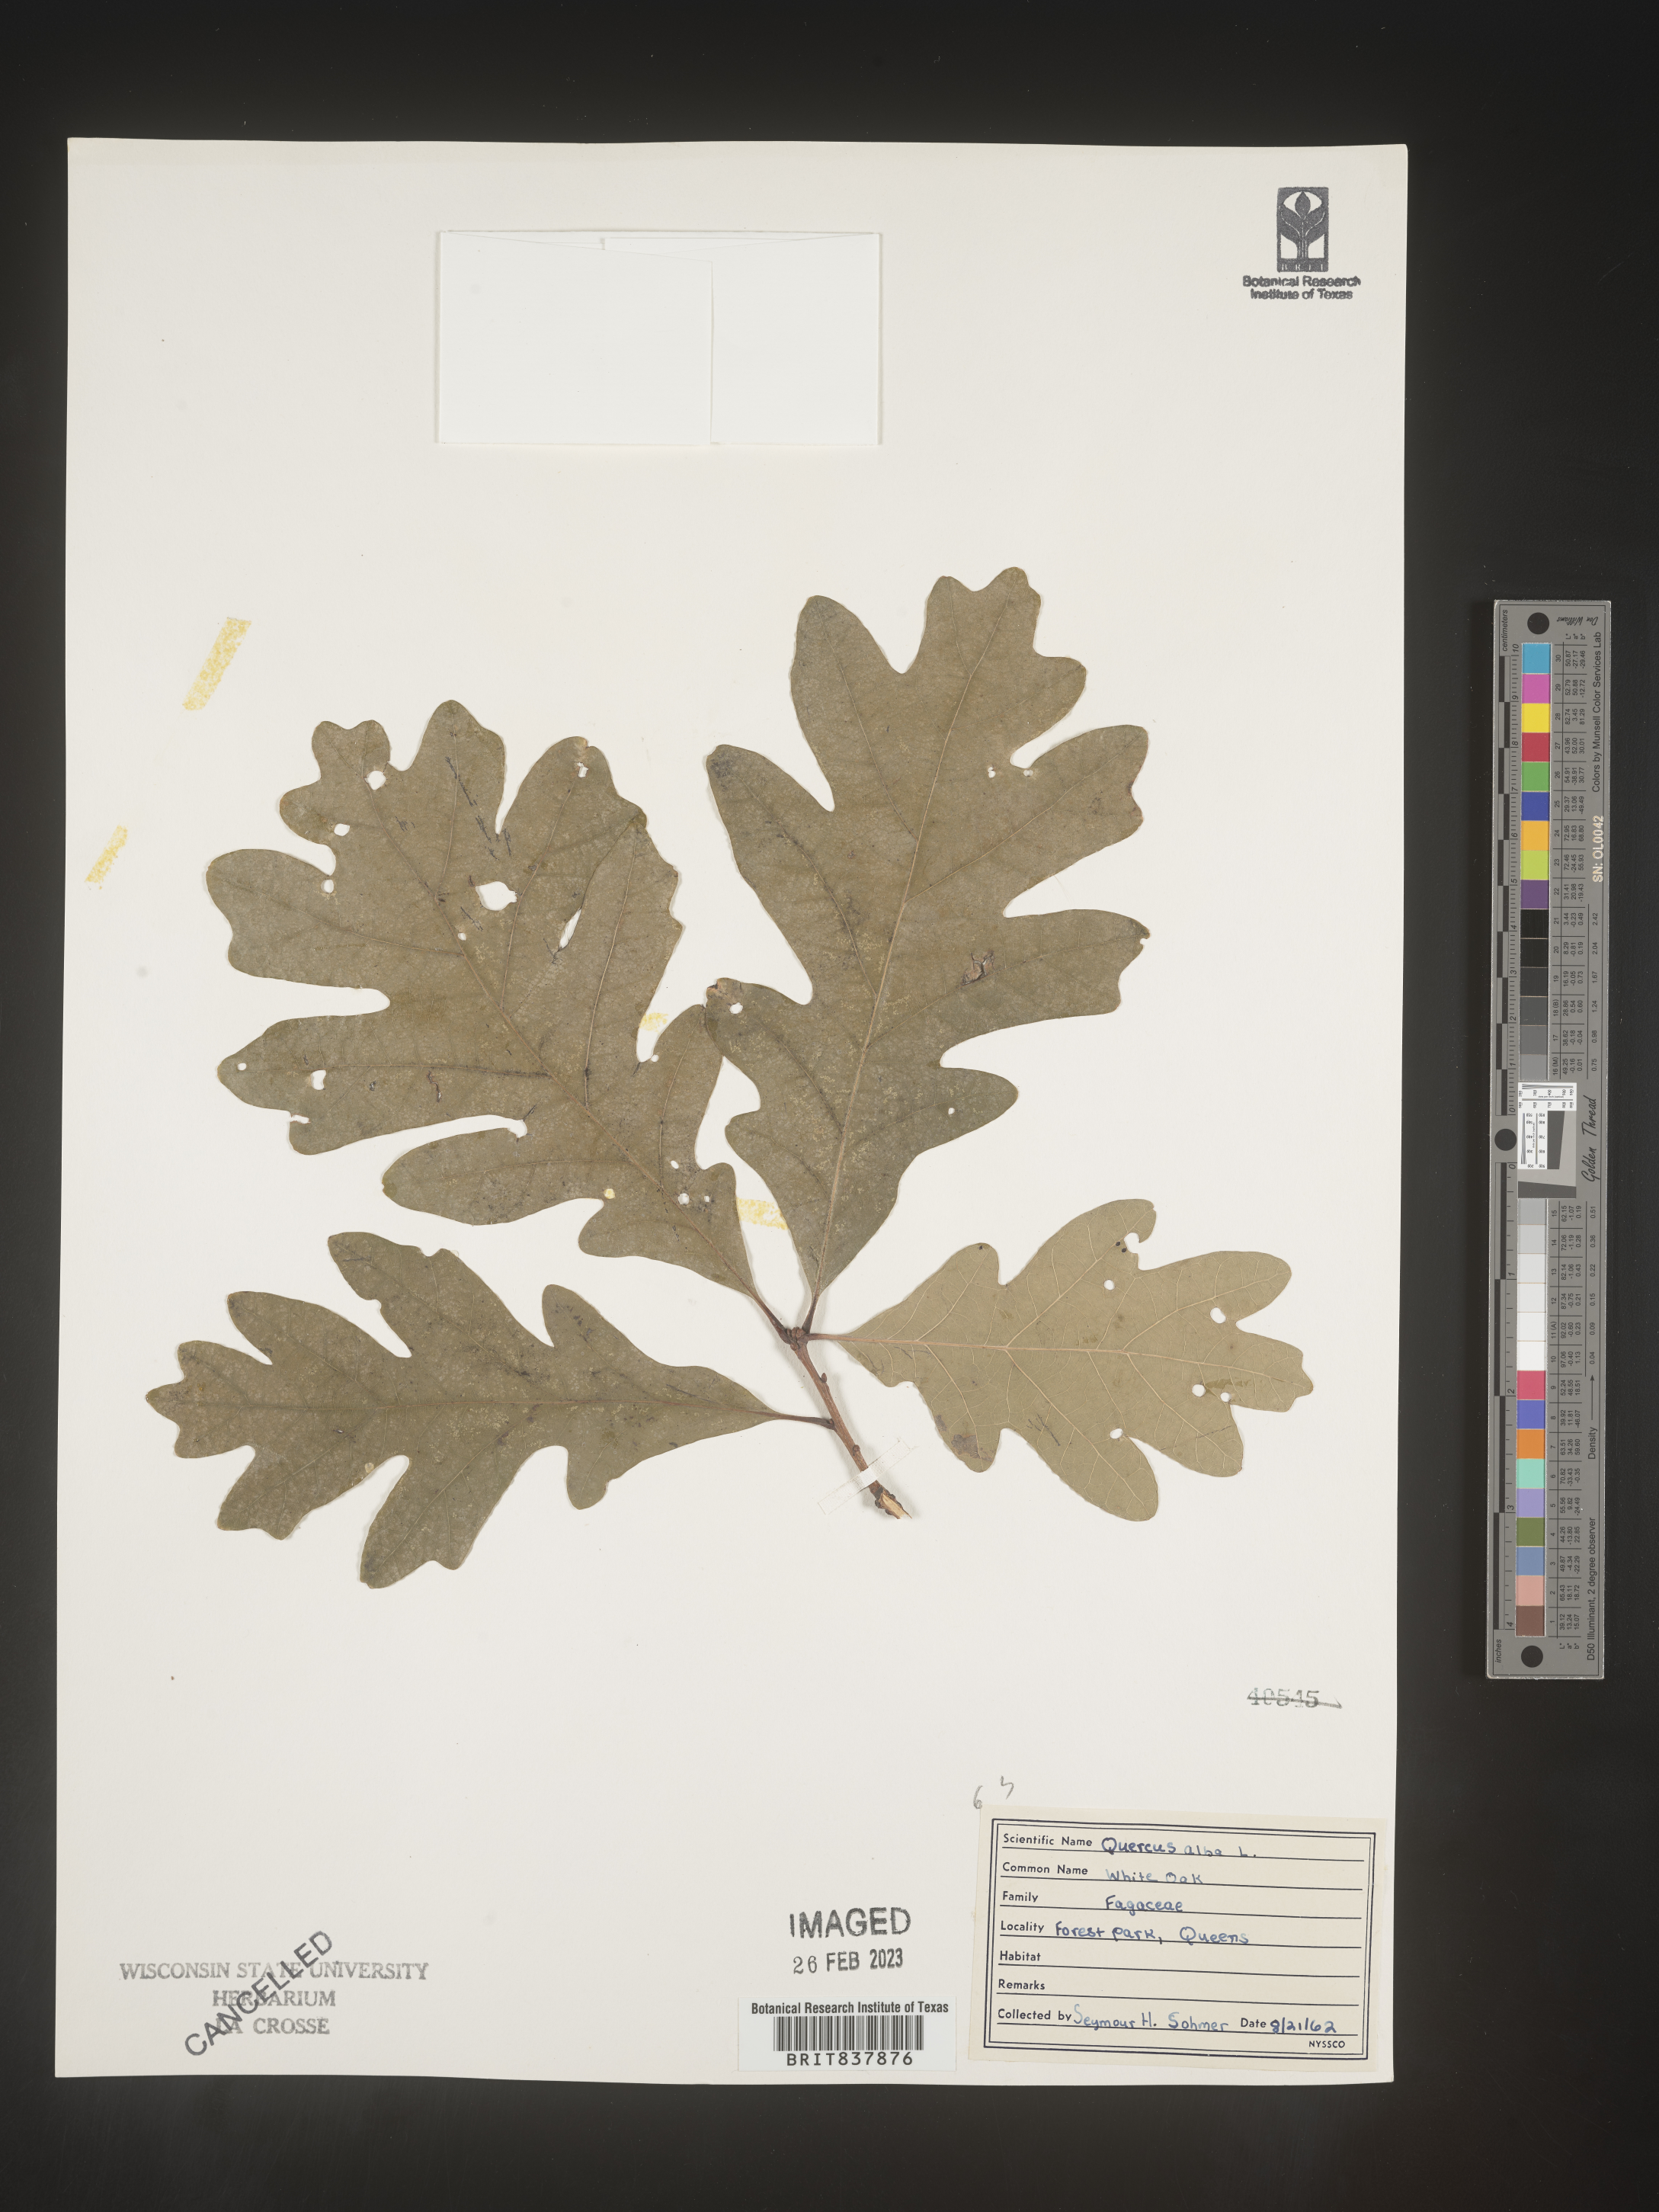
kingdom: Plantae
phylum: Tracheophyta
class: Magnoliopsida
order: Fagales
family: Fagaceae
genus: Quercus
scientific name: Quercus alba
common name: White oak
